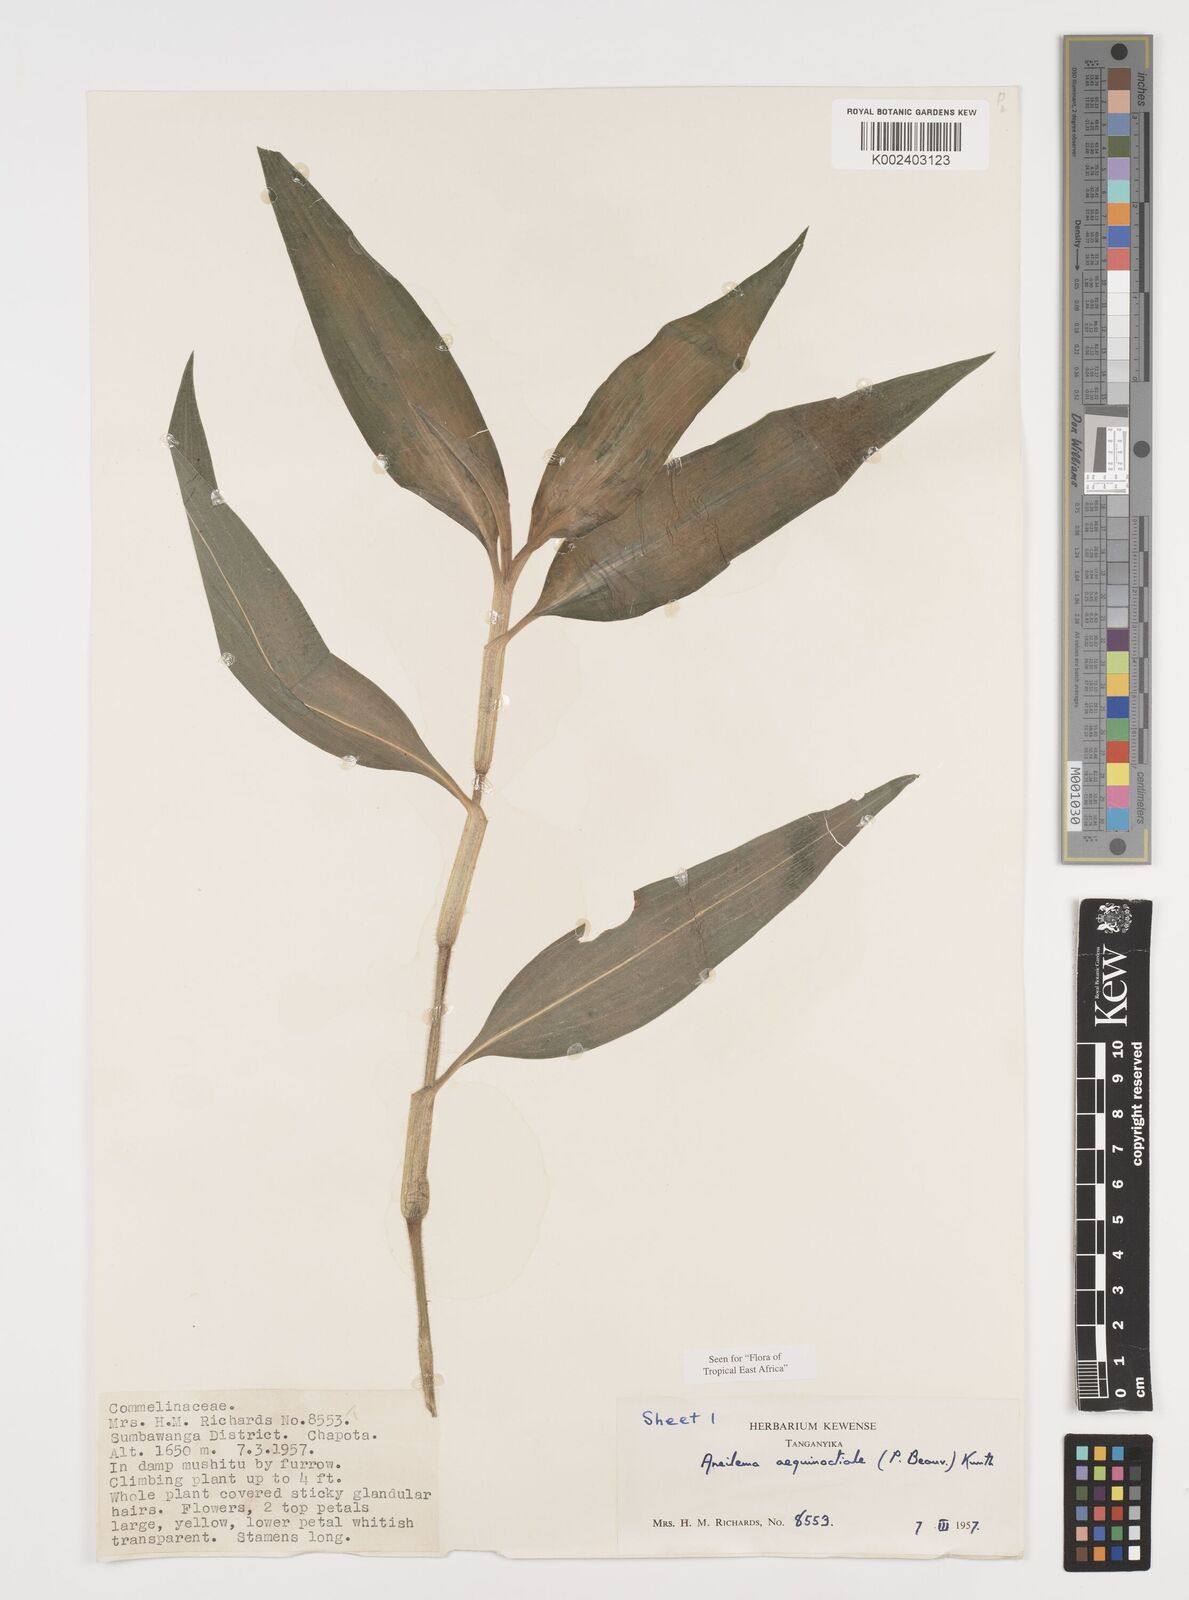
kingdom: Plantae
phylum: Tracheophyta
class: Liliopsida
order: Commelinales
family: Commelinaceae
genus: Aneilema
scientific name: Aneilema aequinoctiale
